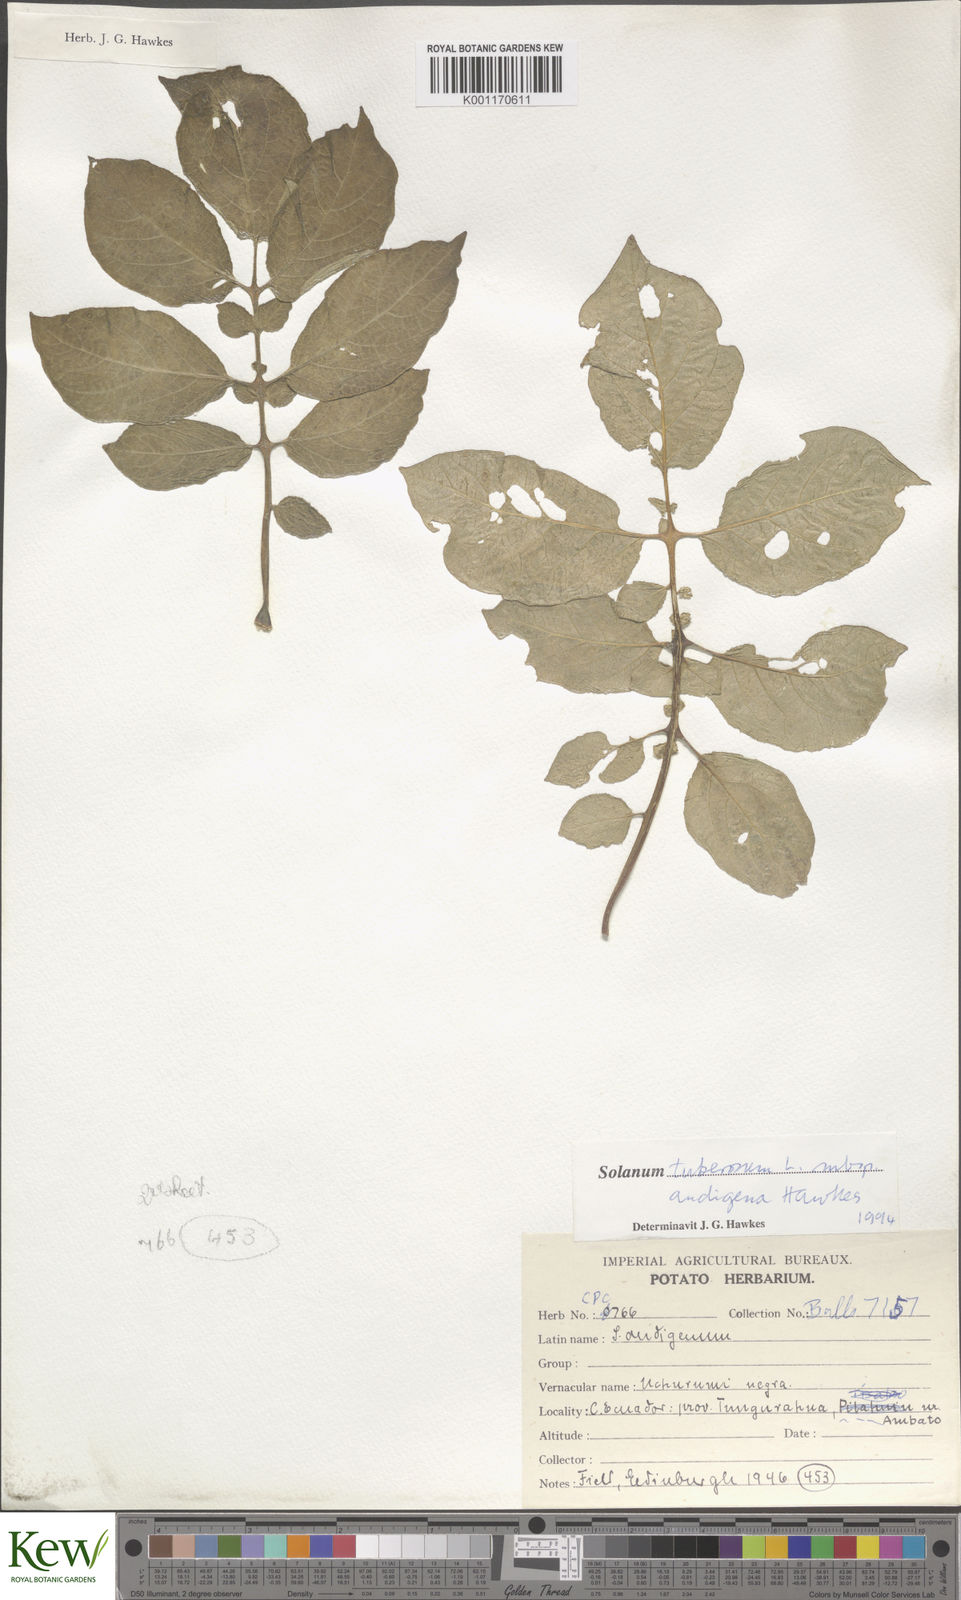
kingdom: Plantae
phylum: Tracheophyta
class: Magnoliopsida
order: Solanales
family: Solanaceae
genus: Solanum
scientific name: Solanum tuberosum
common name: Potato
